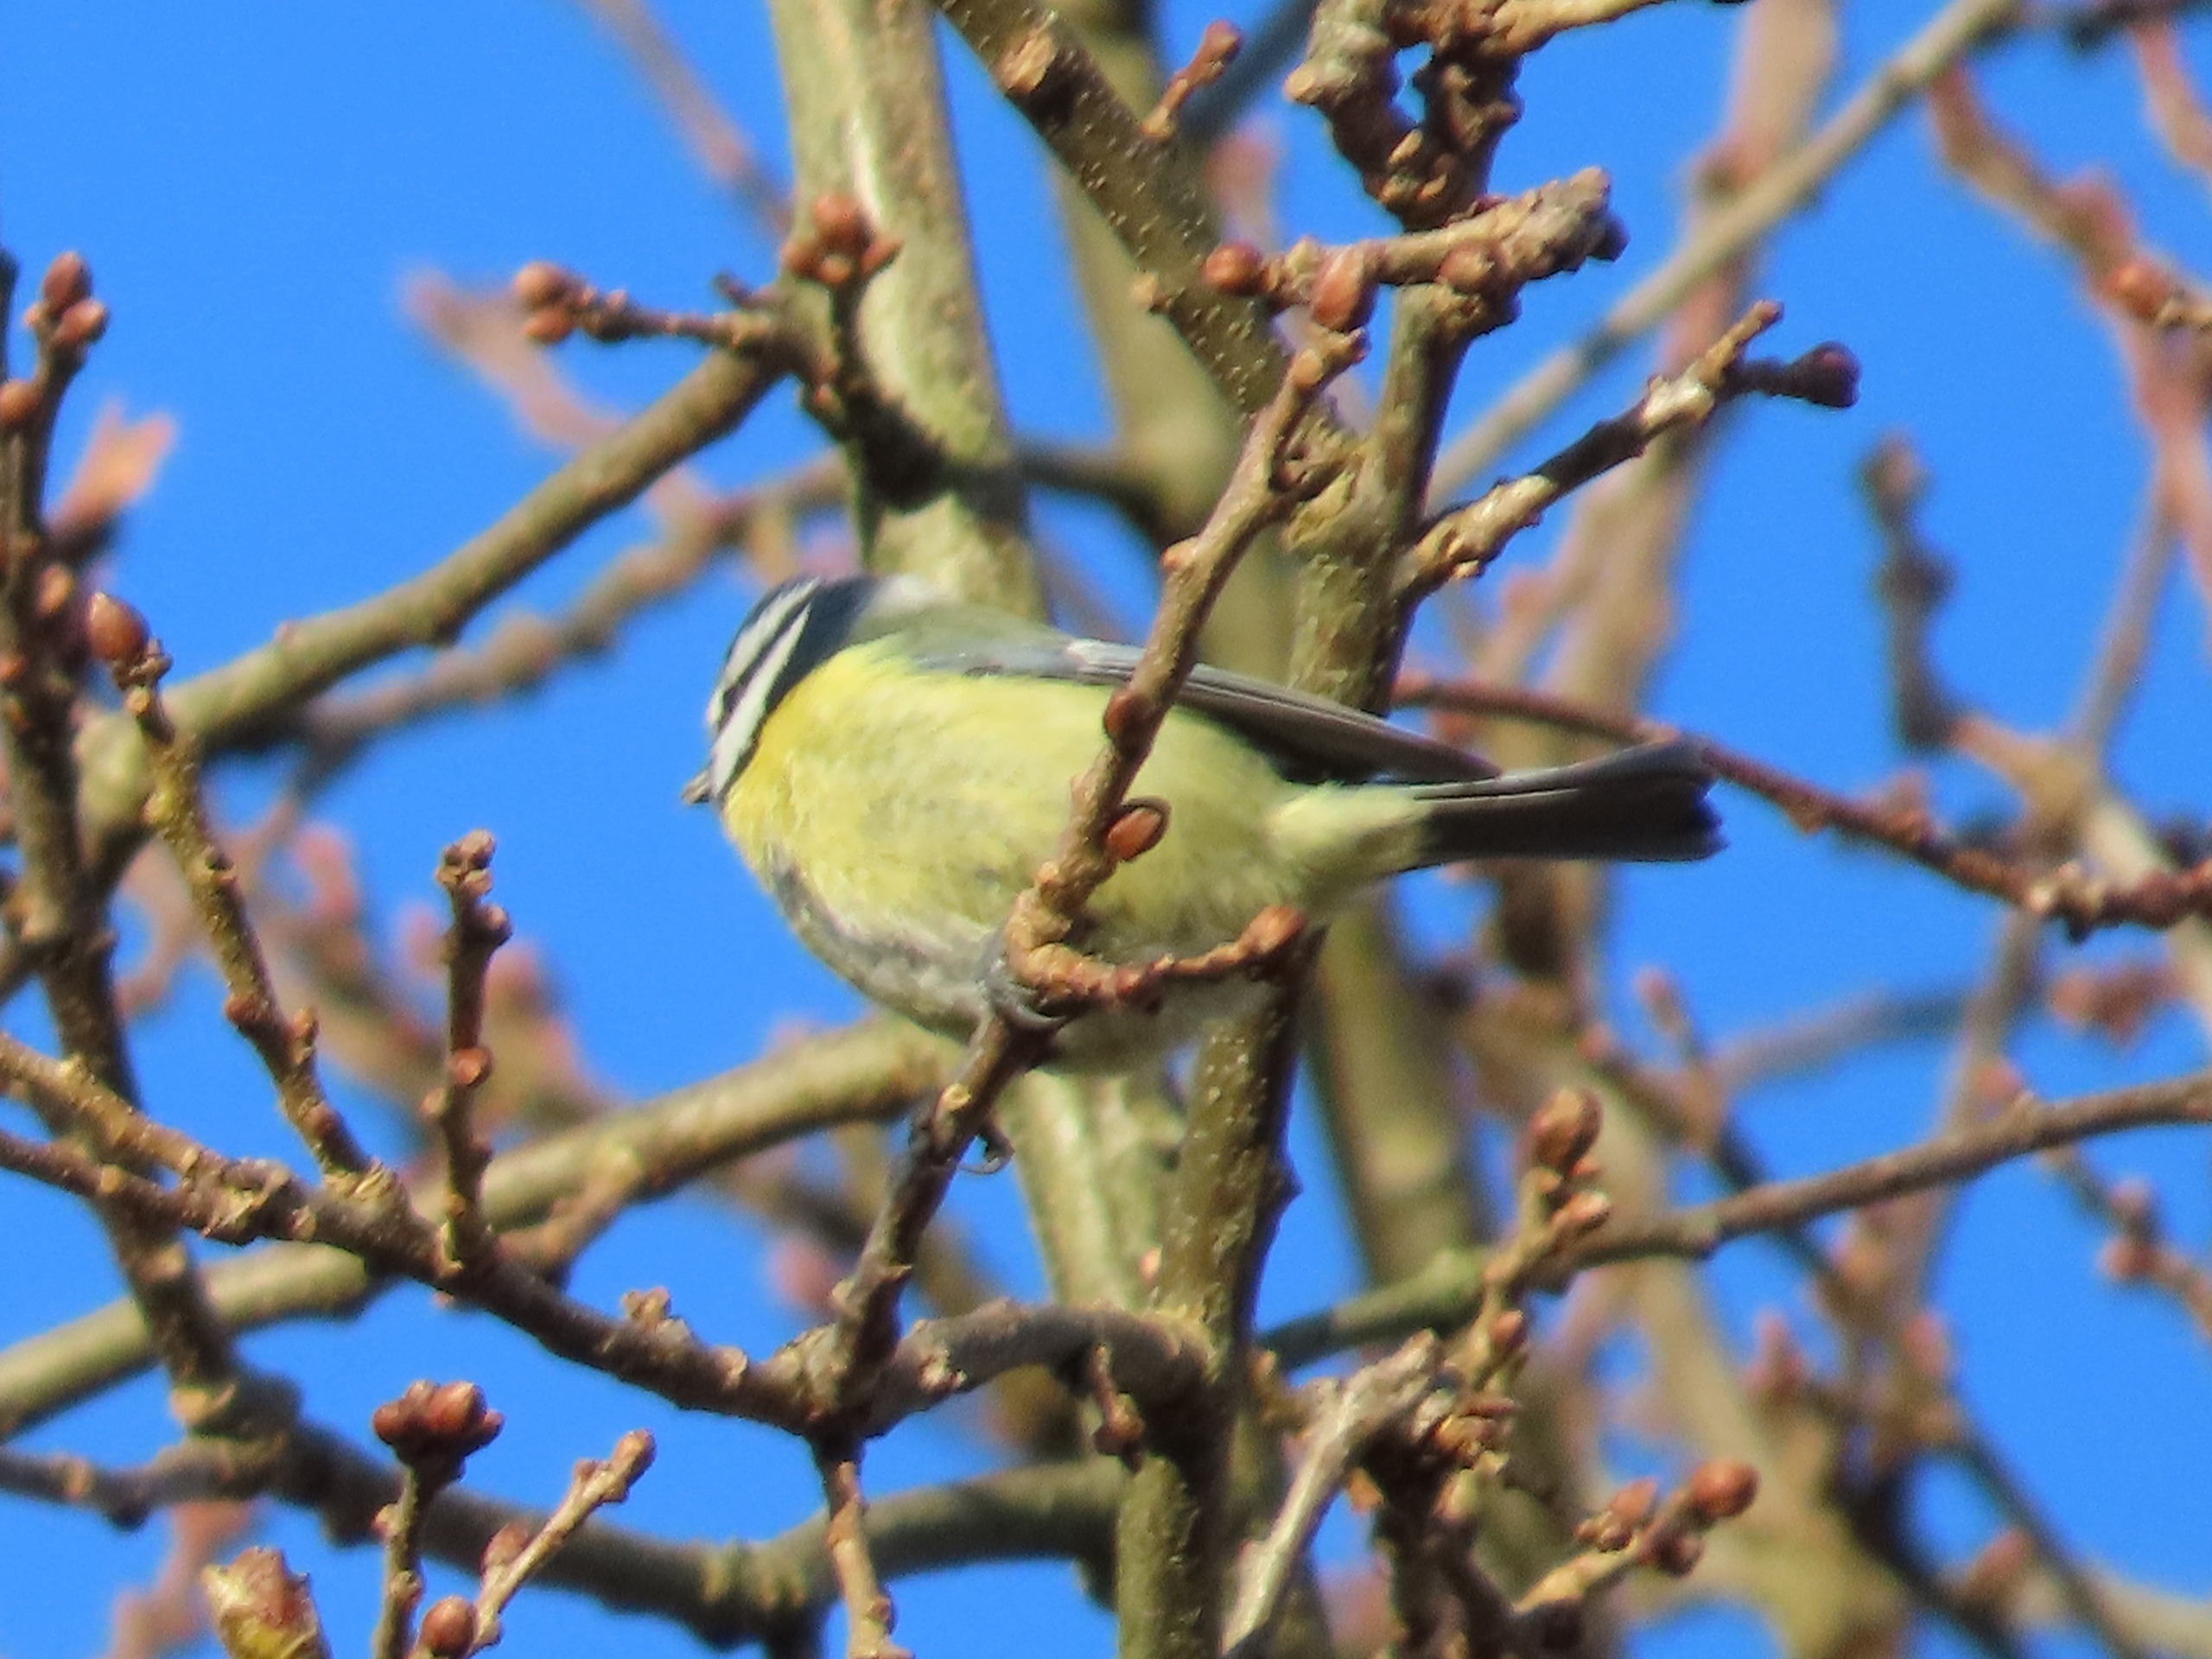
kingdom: Animalia
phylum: Chordata
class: Aves
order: Passeriformes
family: Paridae
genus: Cyanistes
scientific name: Cyanistes caeruleus
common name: Blåmejse
